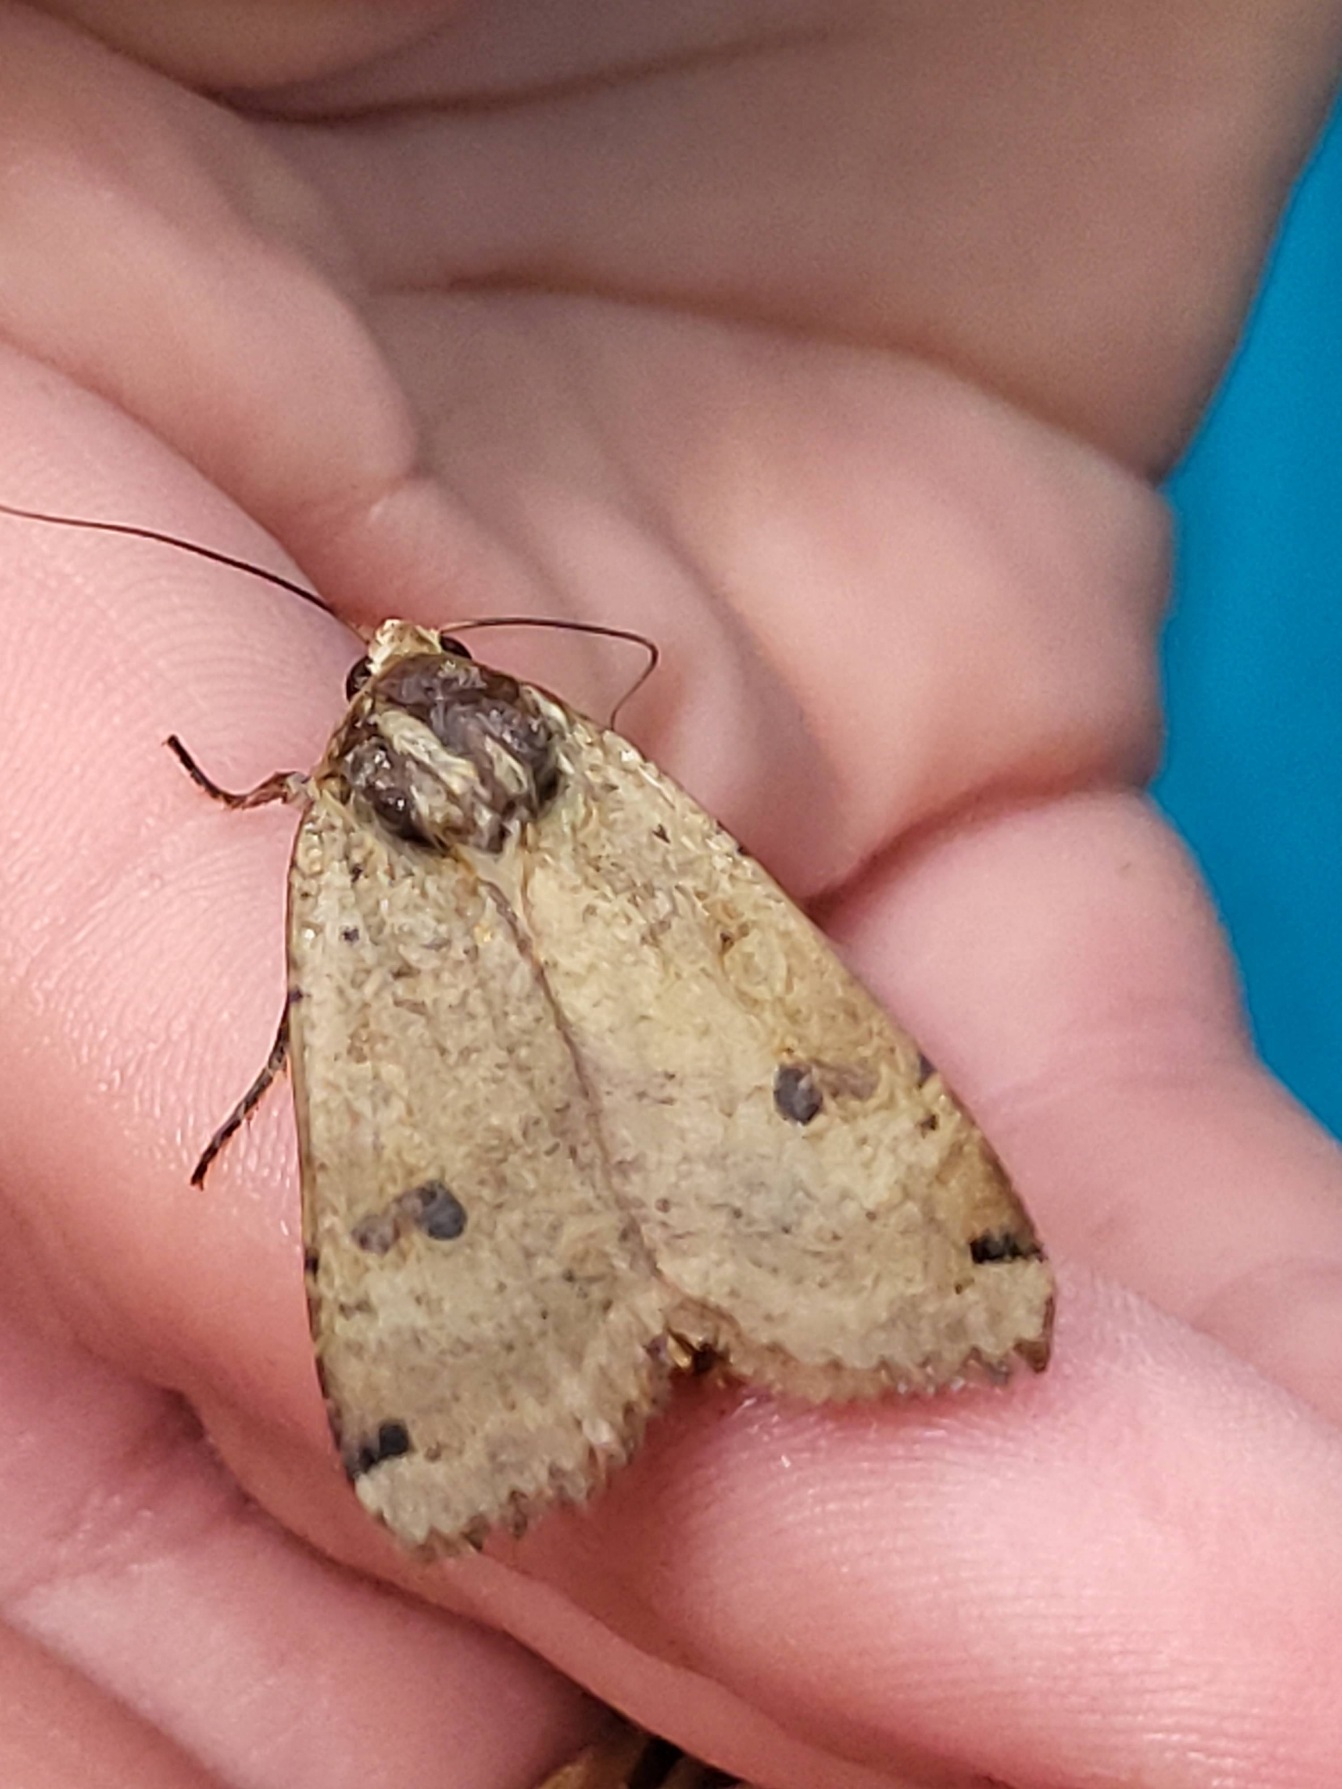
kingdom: Animalia
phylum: Arthropoda
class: Insecta
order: Lepidoptera
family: Noctuidae
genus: Noctua
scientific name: Noctua pronuba
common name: Stor smutugle
